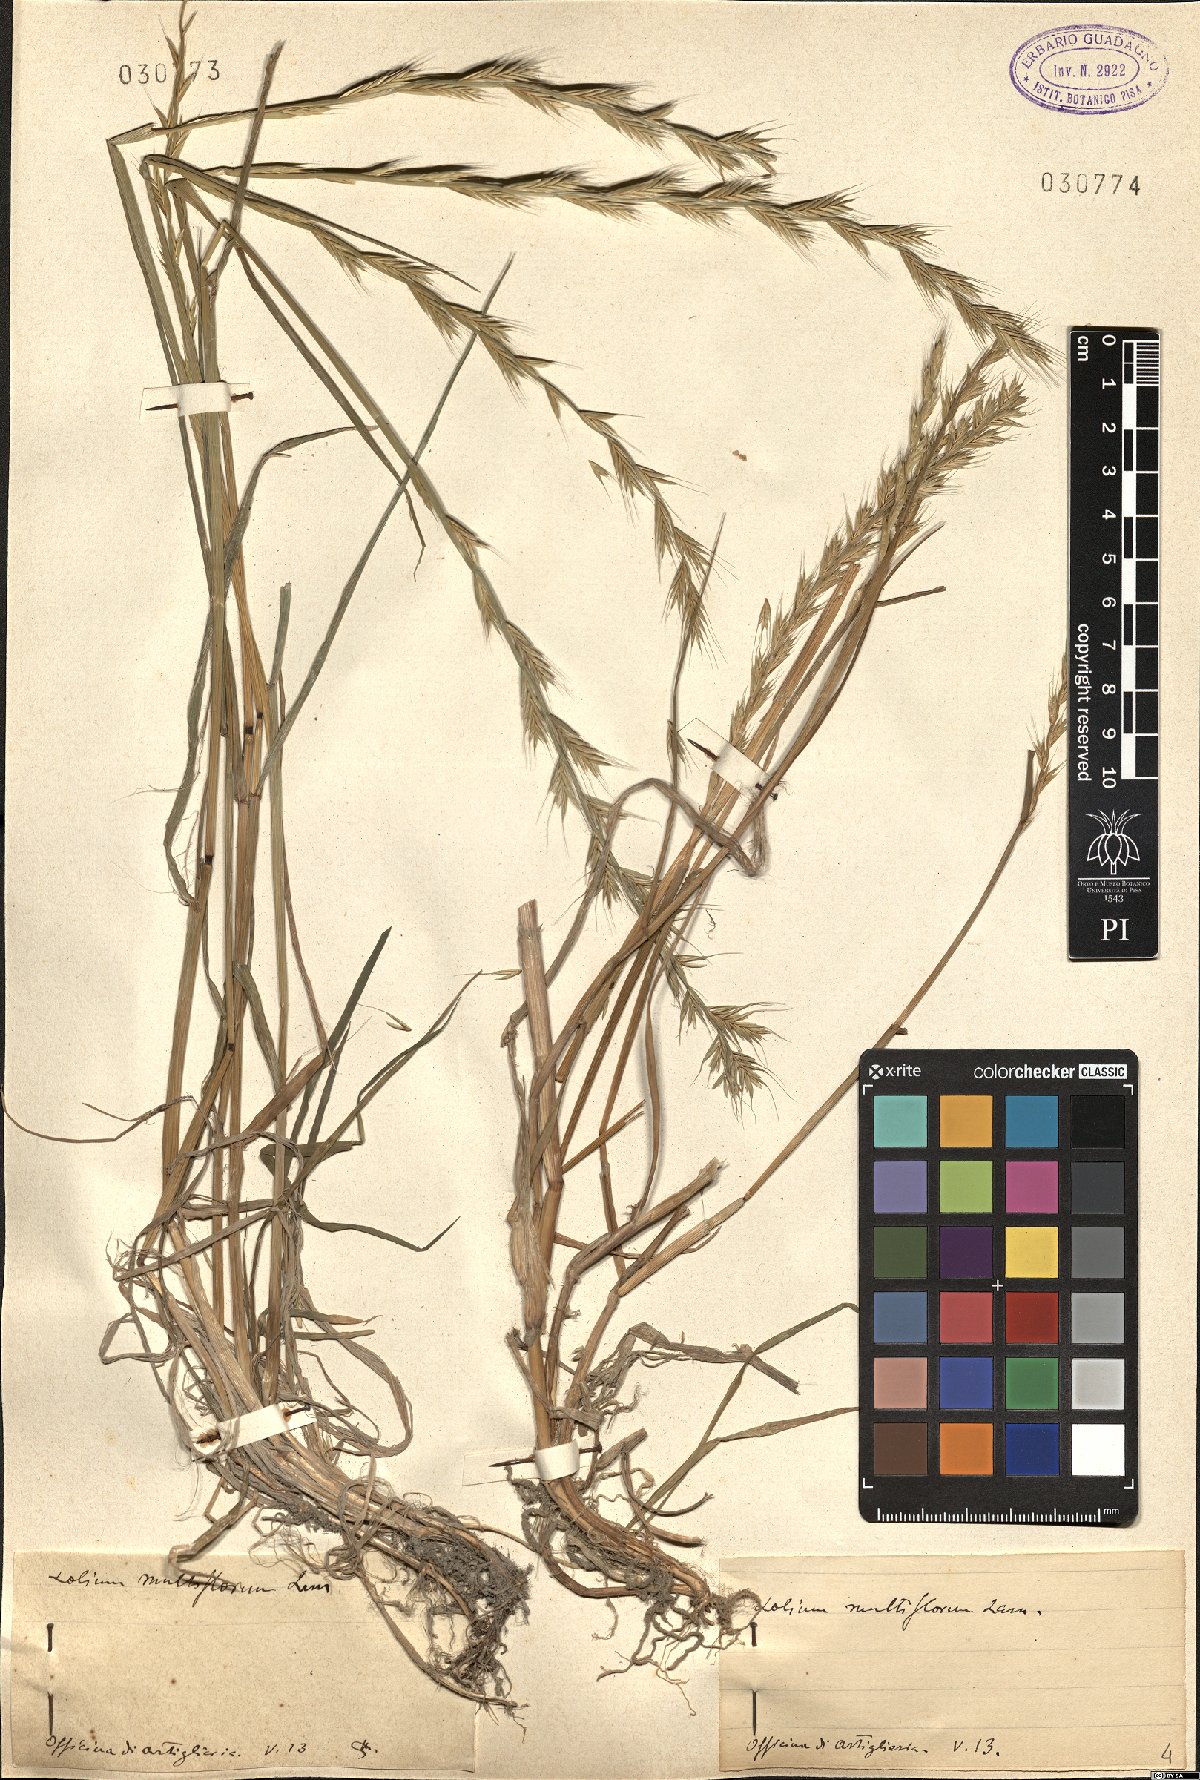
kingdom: Plantae
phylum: Tracheophyta
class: Liliopsida
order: Poales
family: Poaceae
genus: Lolium
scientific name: Lolium multiflorum
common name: Annual ryegrass
